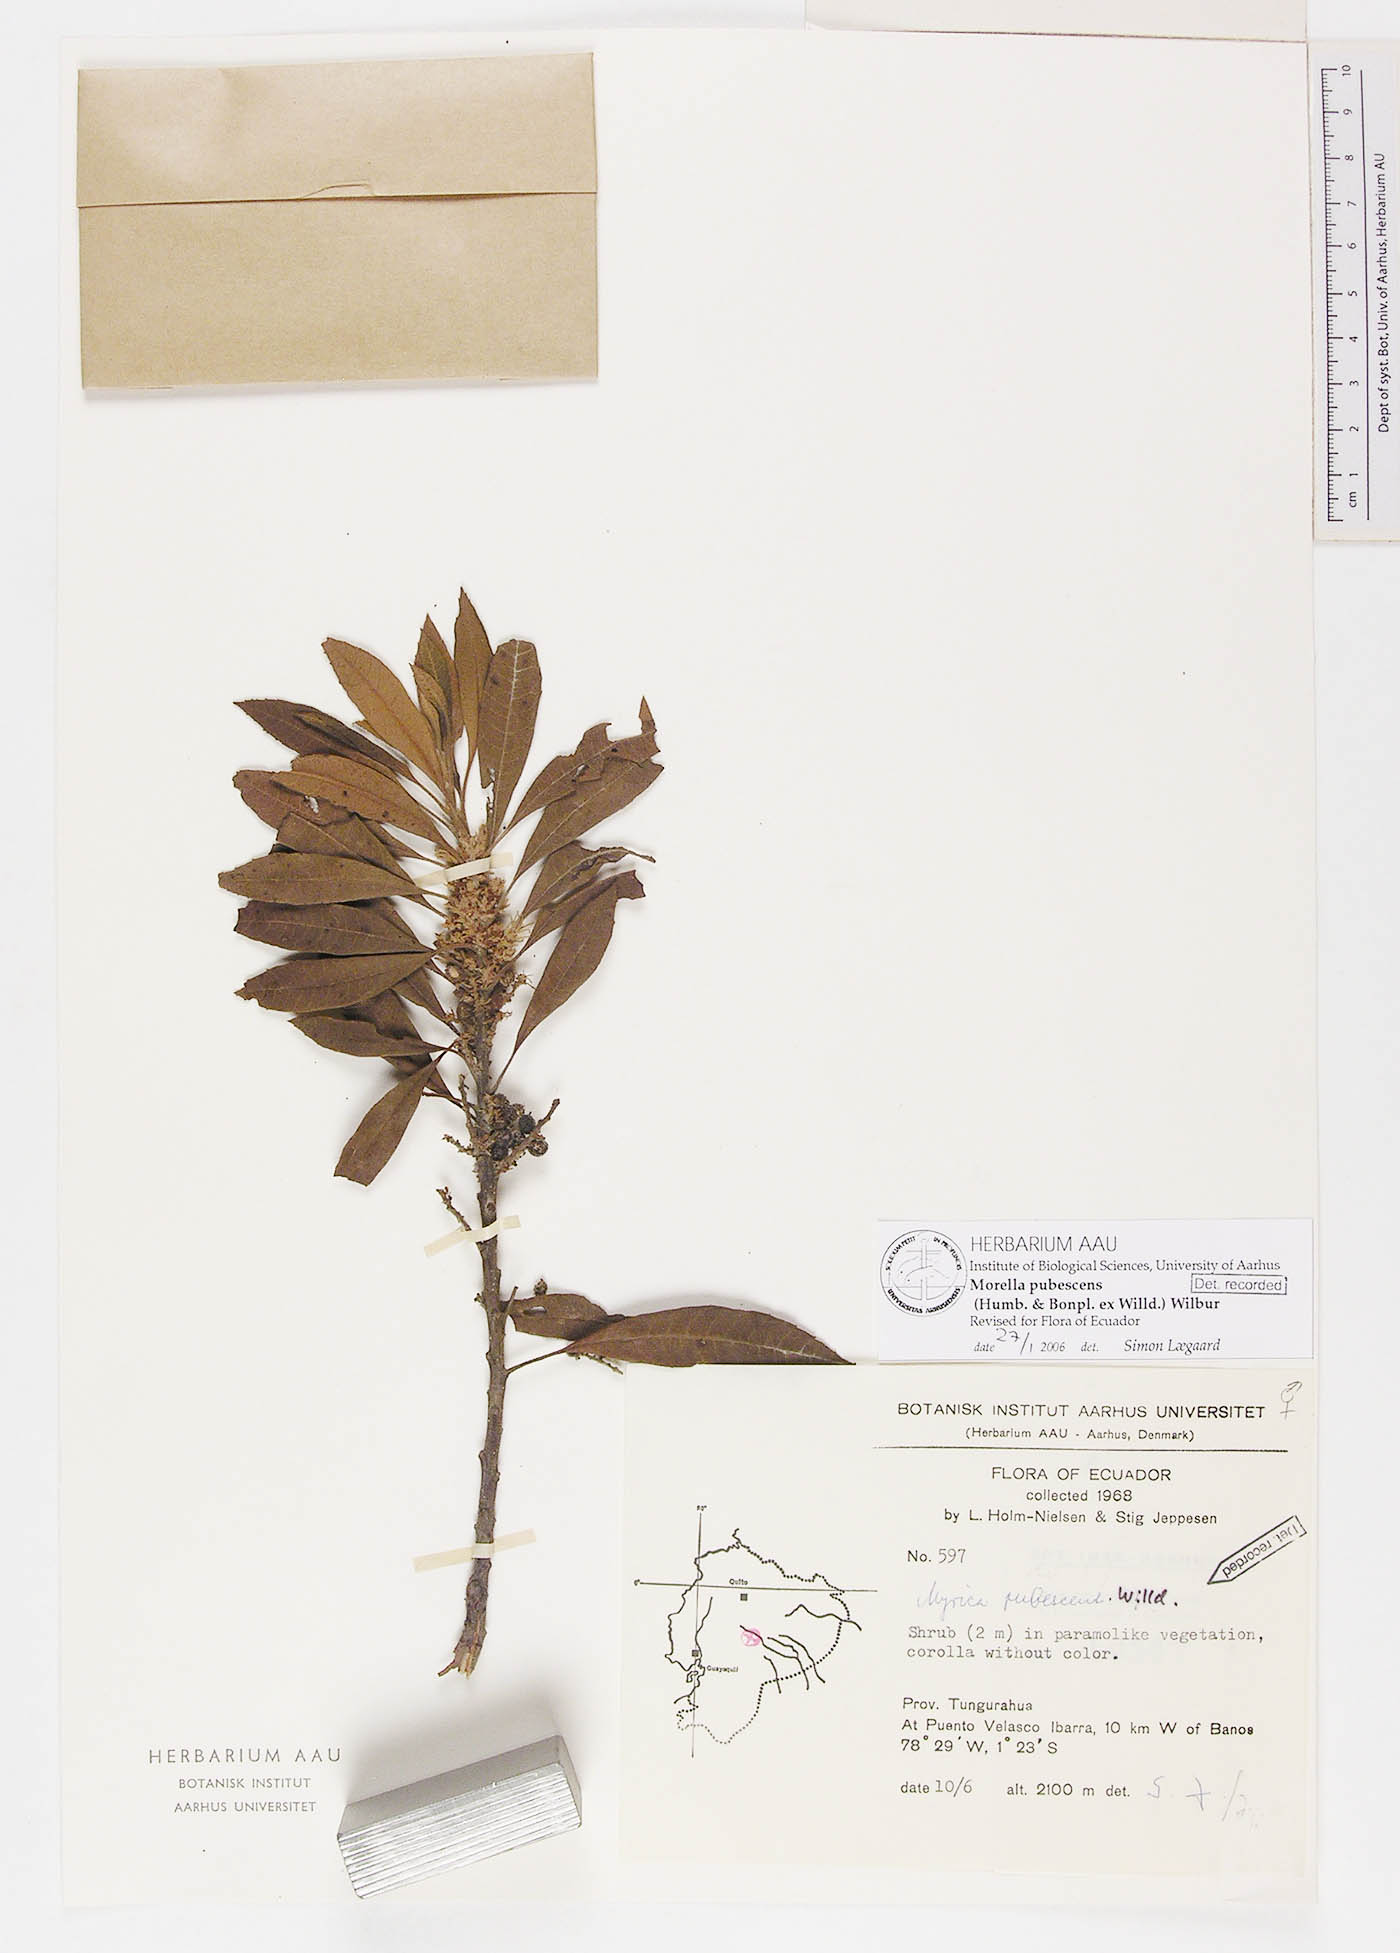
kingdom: Plantae
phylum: Tracheophyta
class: Magnoliopsida
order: Fagales
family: Myricaceae
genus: Morella
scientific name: Morella pubescens
